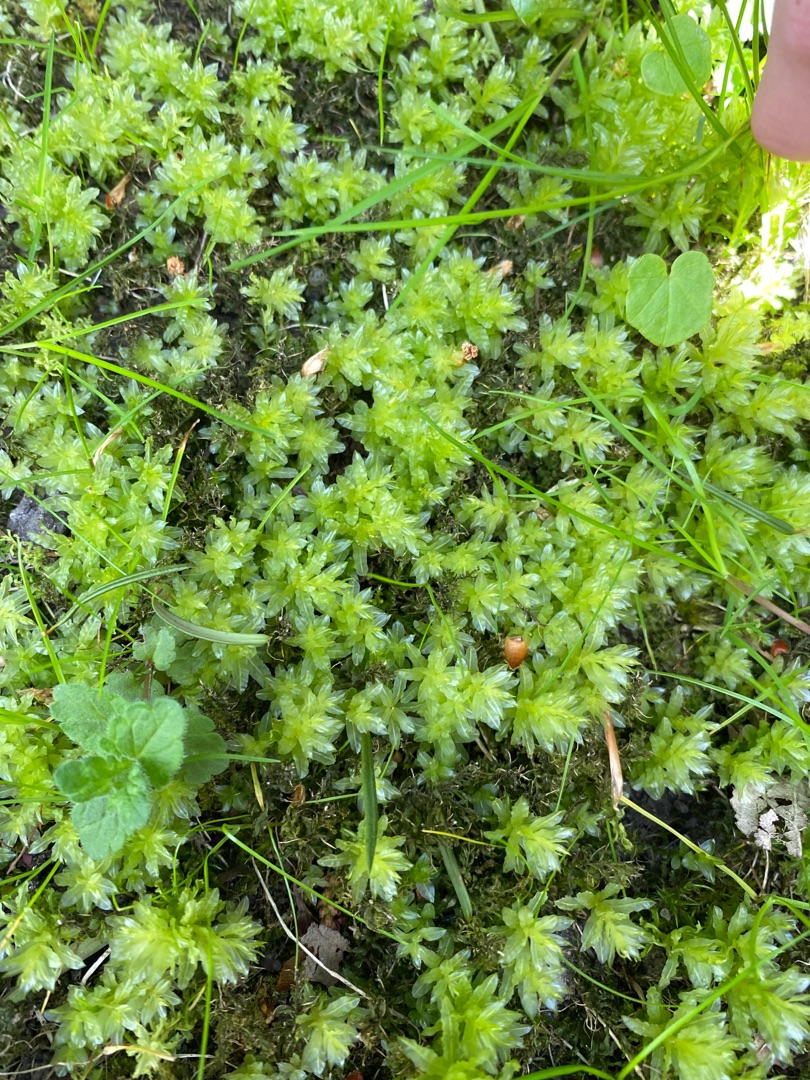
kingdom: Plantae
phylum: Bryophyta
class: Bryopsida
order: Bryales
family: Mniaceae
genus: Plagiomnium
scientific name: Plagiomnium undulatum
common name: Bølget krybstjerne
